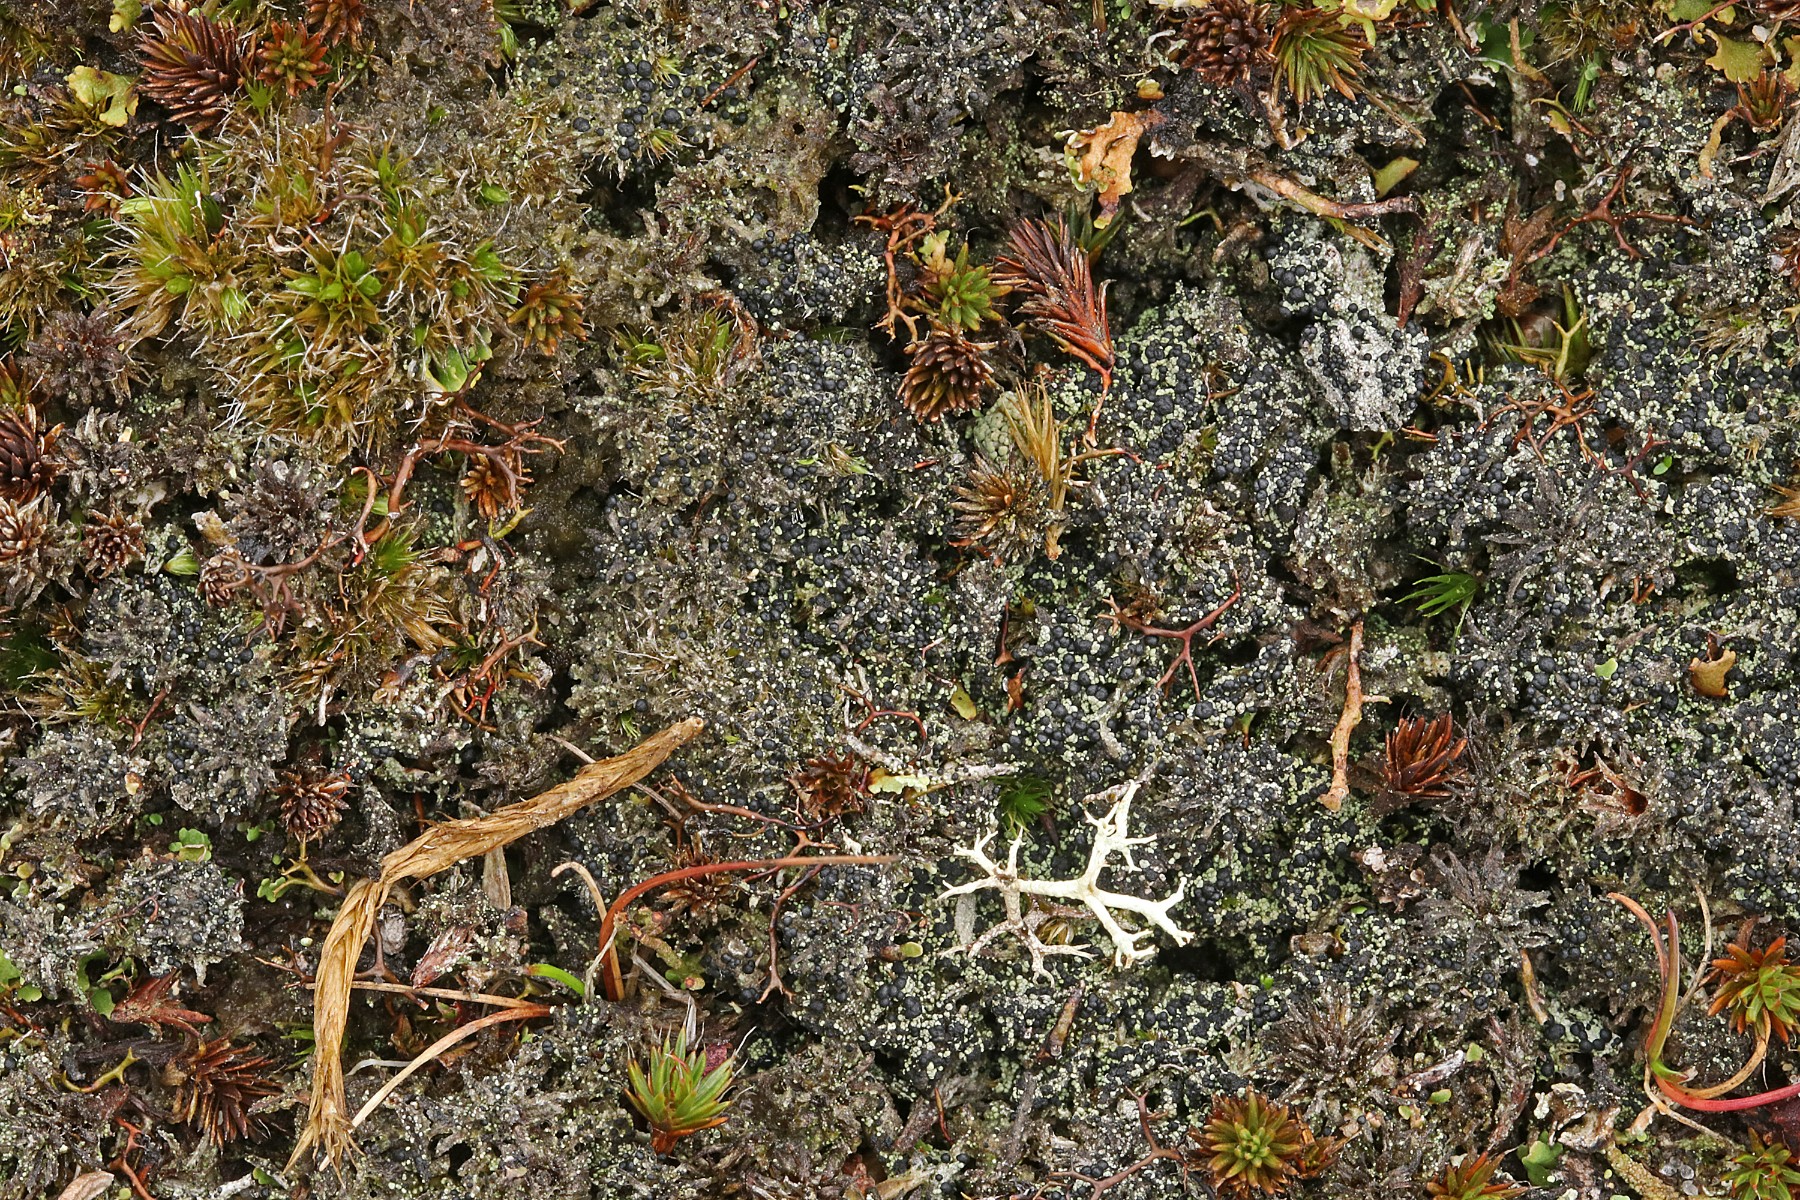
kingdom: Fungi
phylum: Ascomycota
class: Lecanoromycetes
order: Lecanorales
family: Byssolomataceae
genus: Micarea
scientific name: Micarea lignaria
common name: tørve-knaplav
